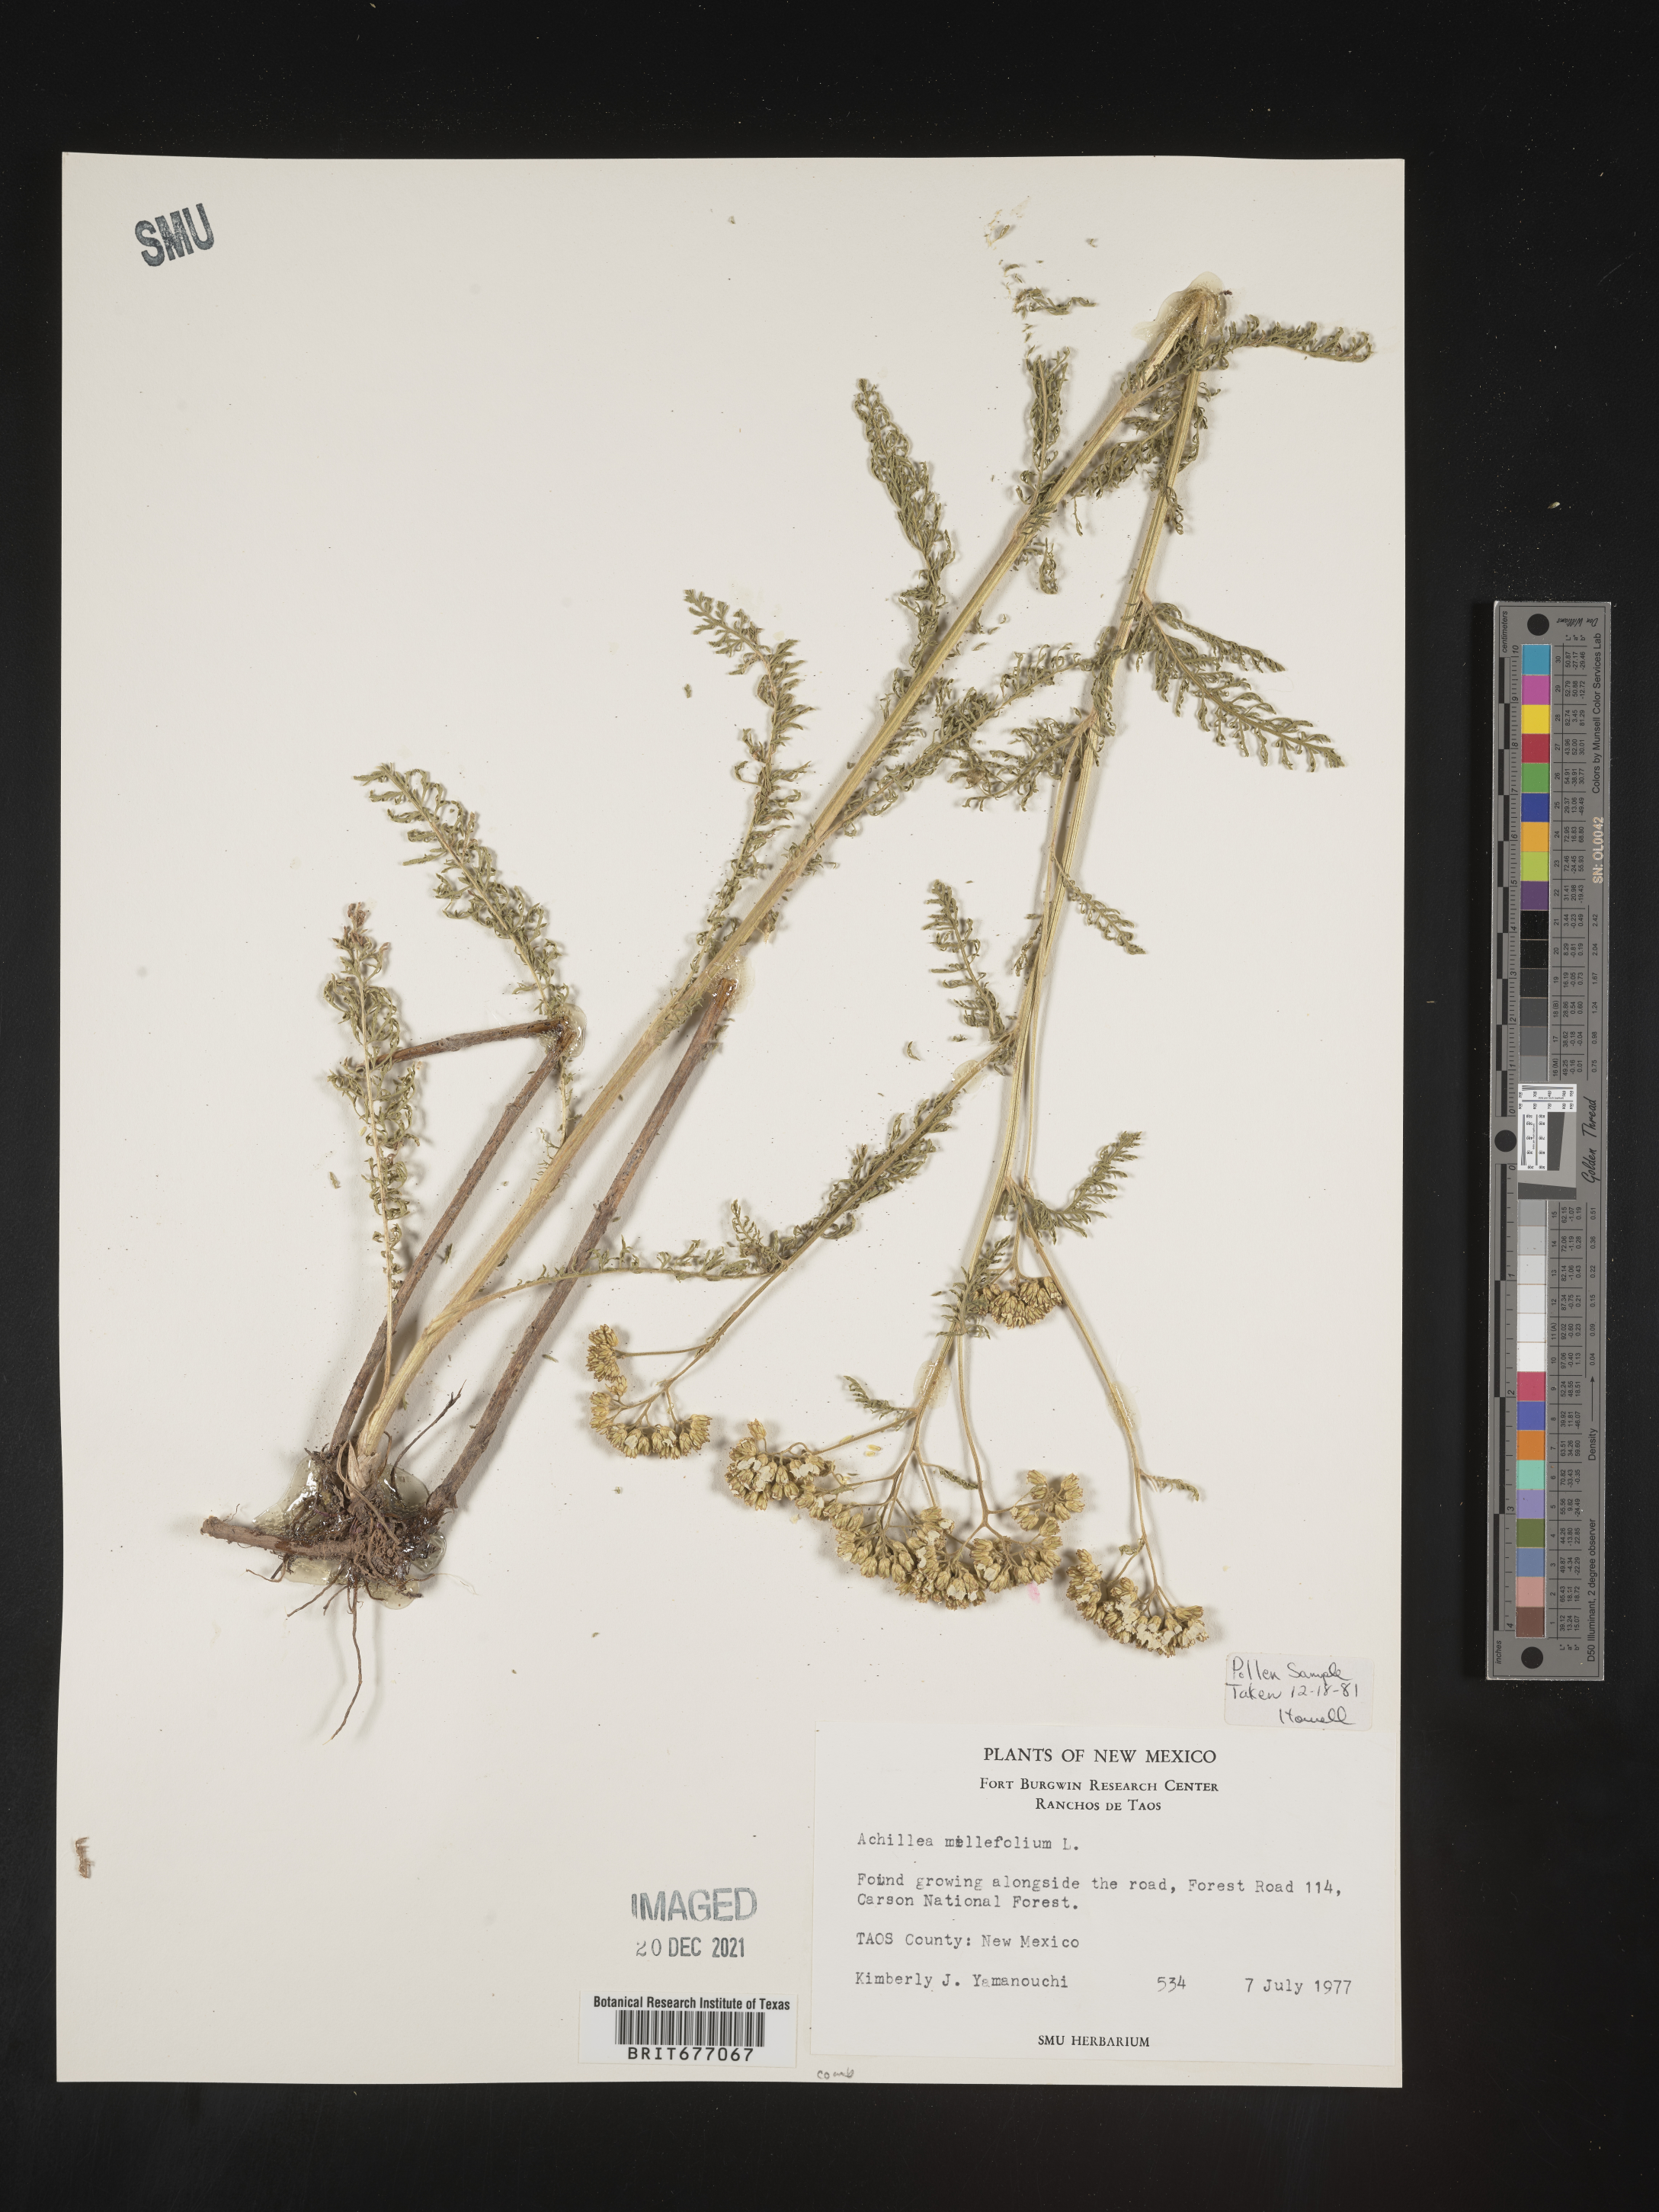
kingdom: Plantae
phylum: Tracheophyta
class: Magnoliopsida
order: Asterales
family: Asteraceae
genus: Achillea
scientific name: Achillea millefolium
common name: Yarrow
